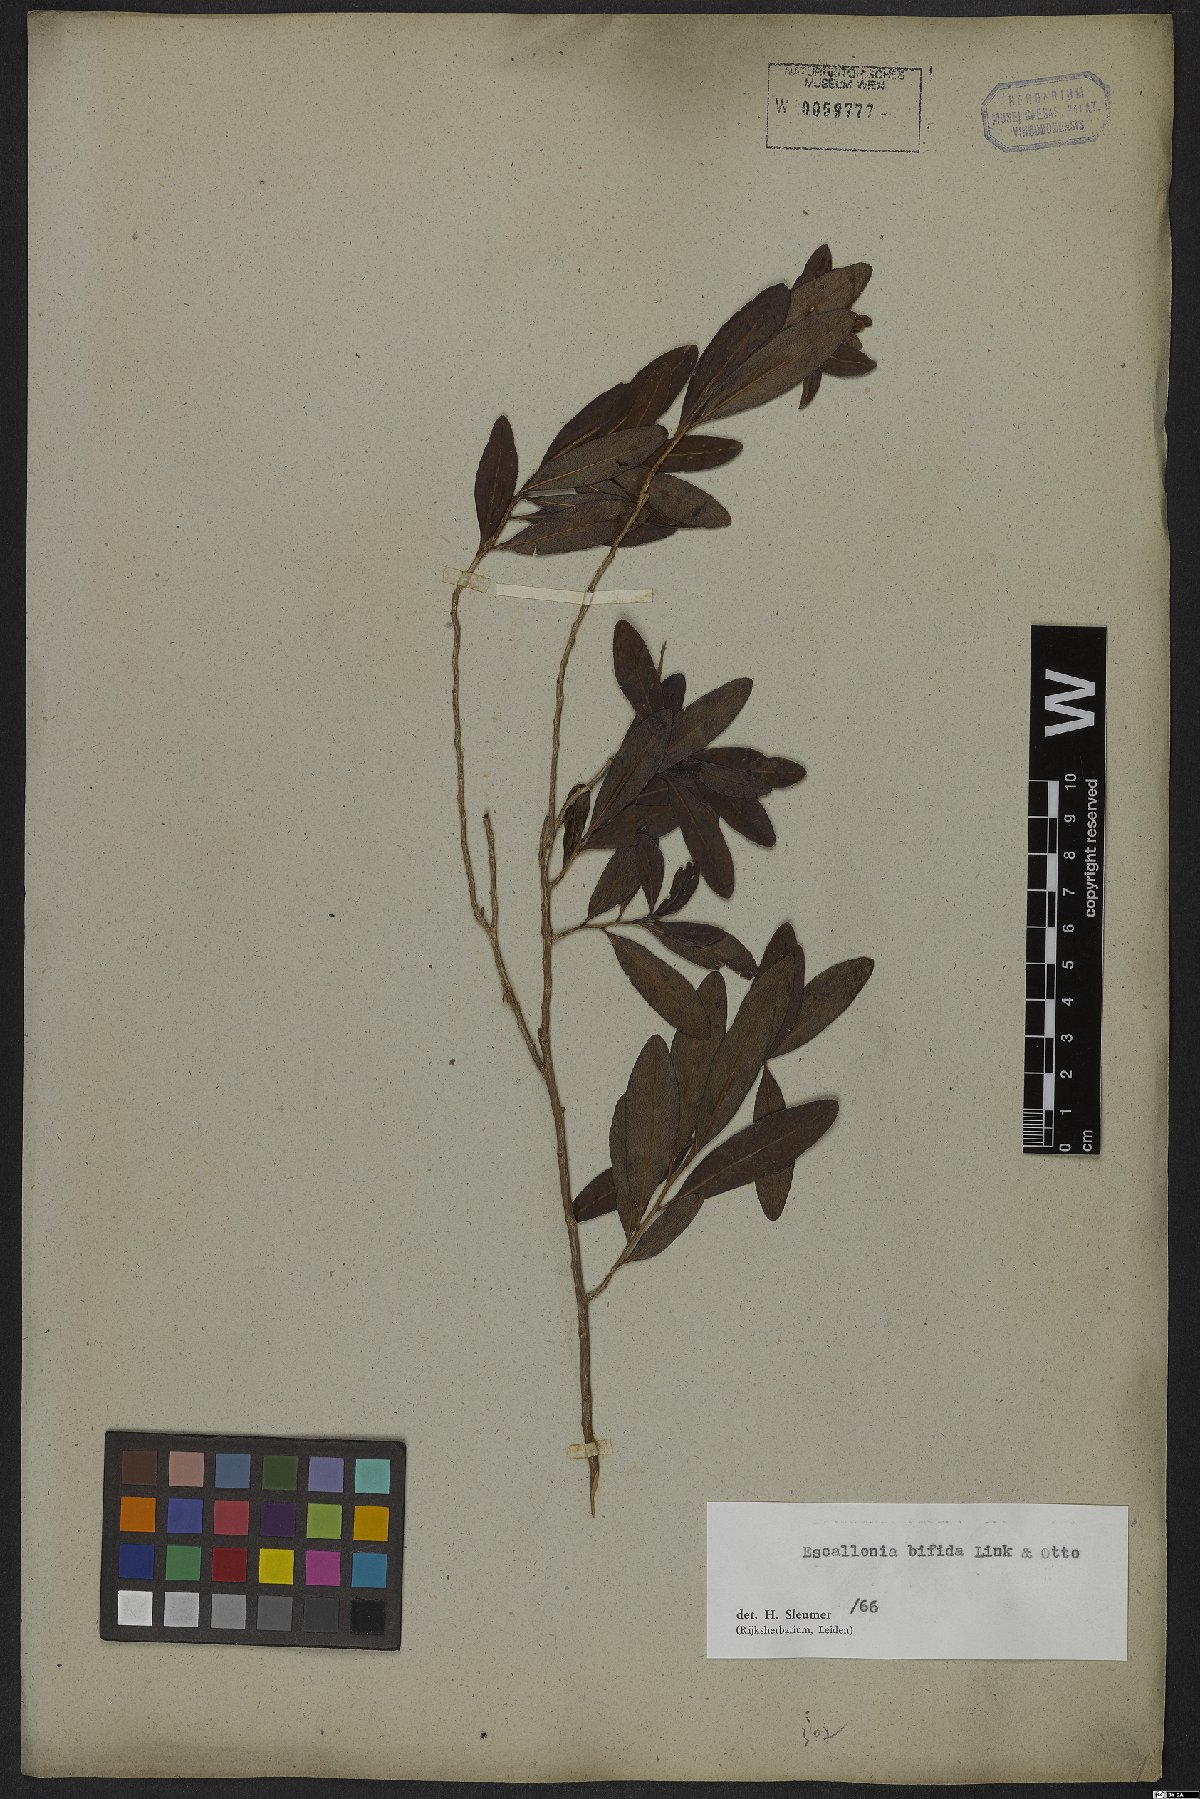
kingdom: Plantae
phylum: Tracheophyta
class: Magnoliopsida
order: Escalloniales
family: Escalloniaceae
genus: Escallonia
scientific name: Escallonia bifida
